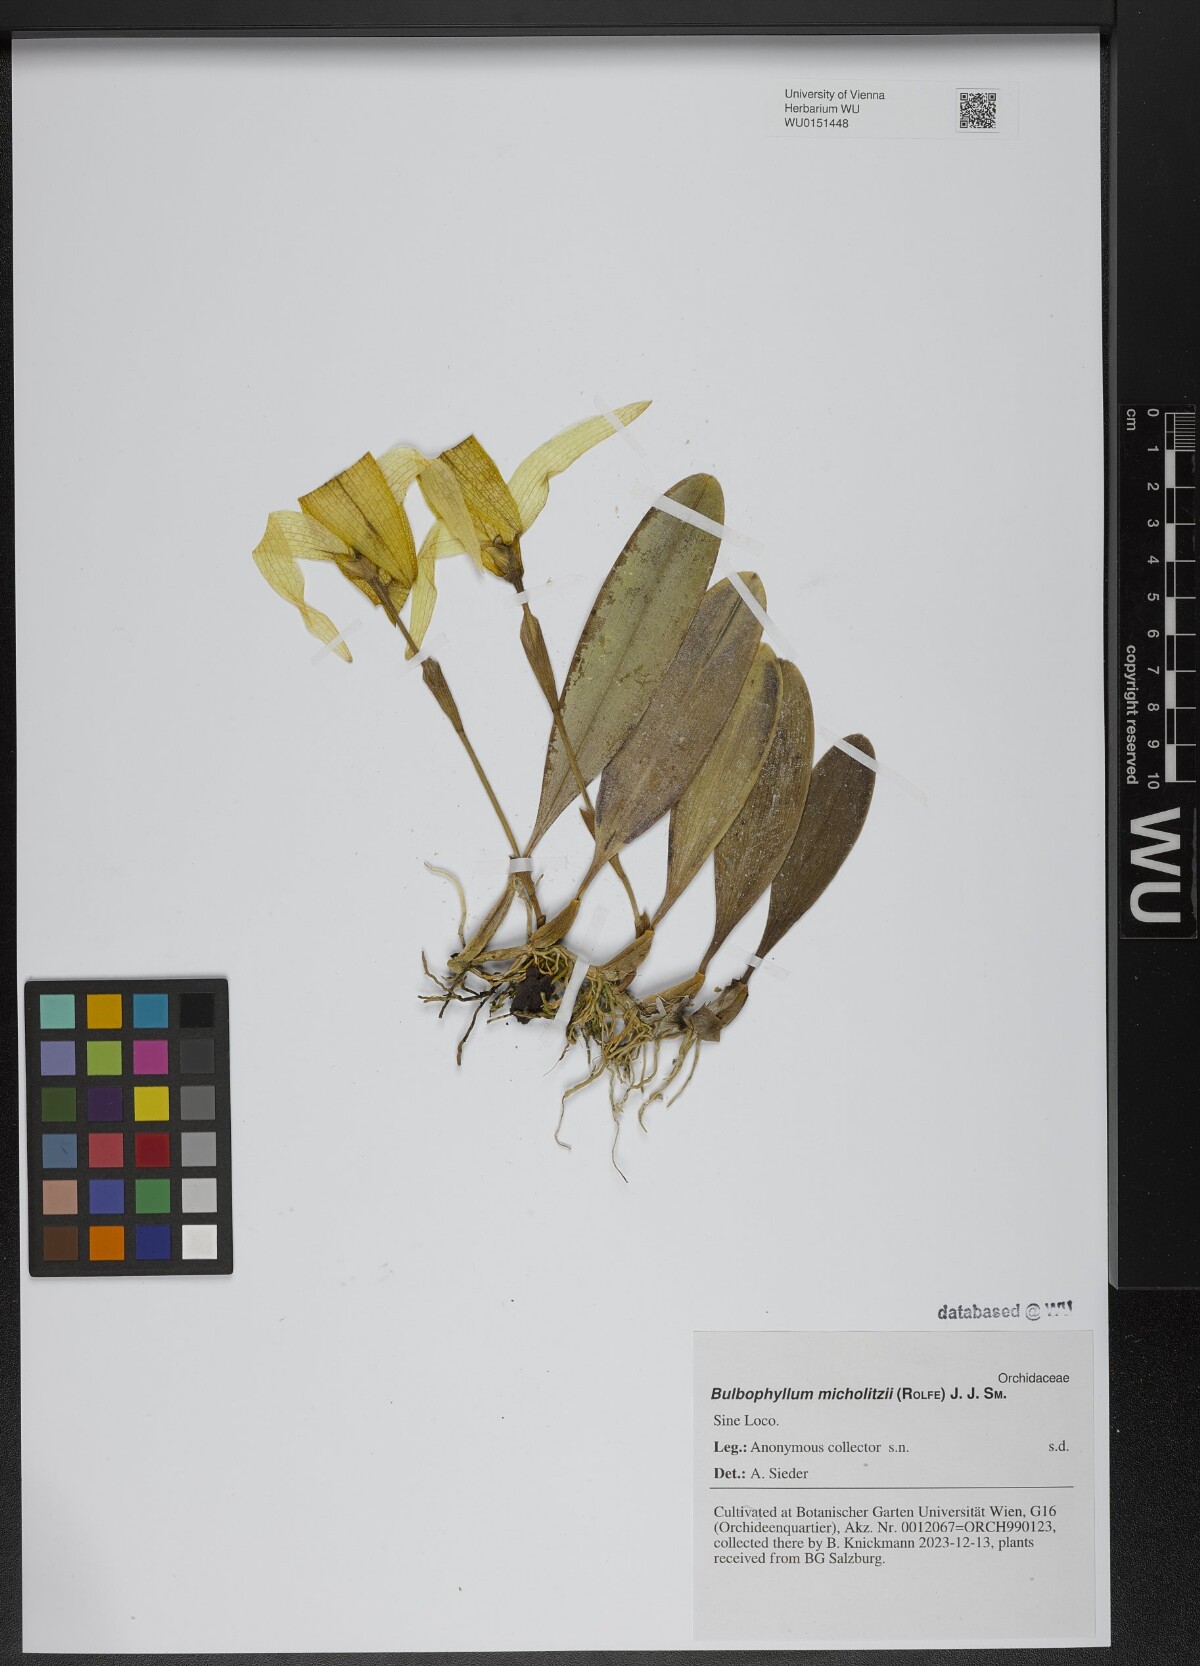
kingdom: Plantae
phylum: Tracheophyta
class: Liliopsida
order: Asparagales
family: Orchidaceae
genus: Bulbophyllum
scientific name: Bulbophyllum retusiusculum
